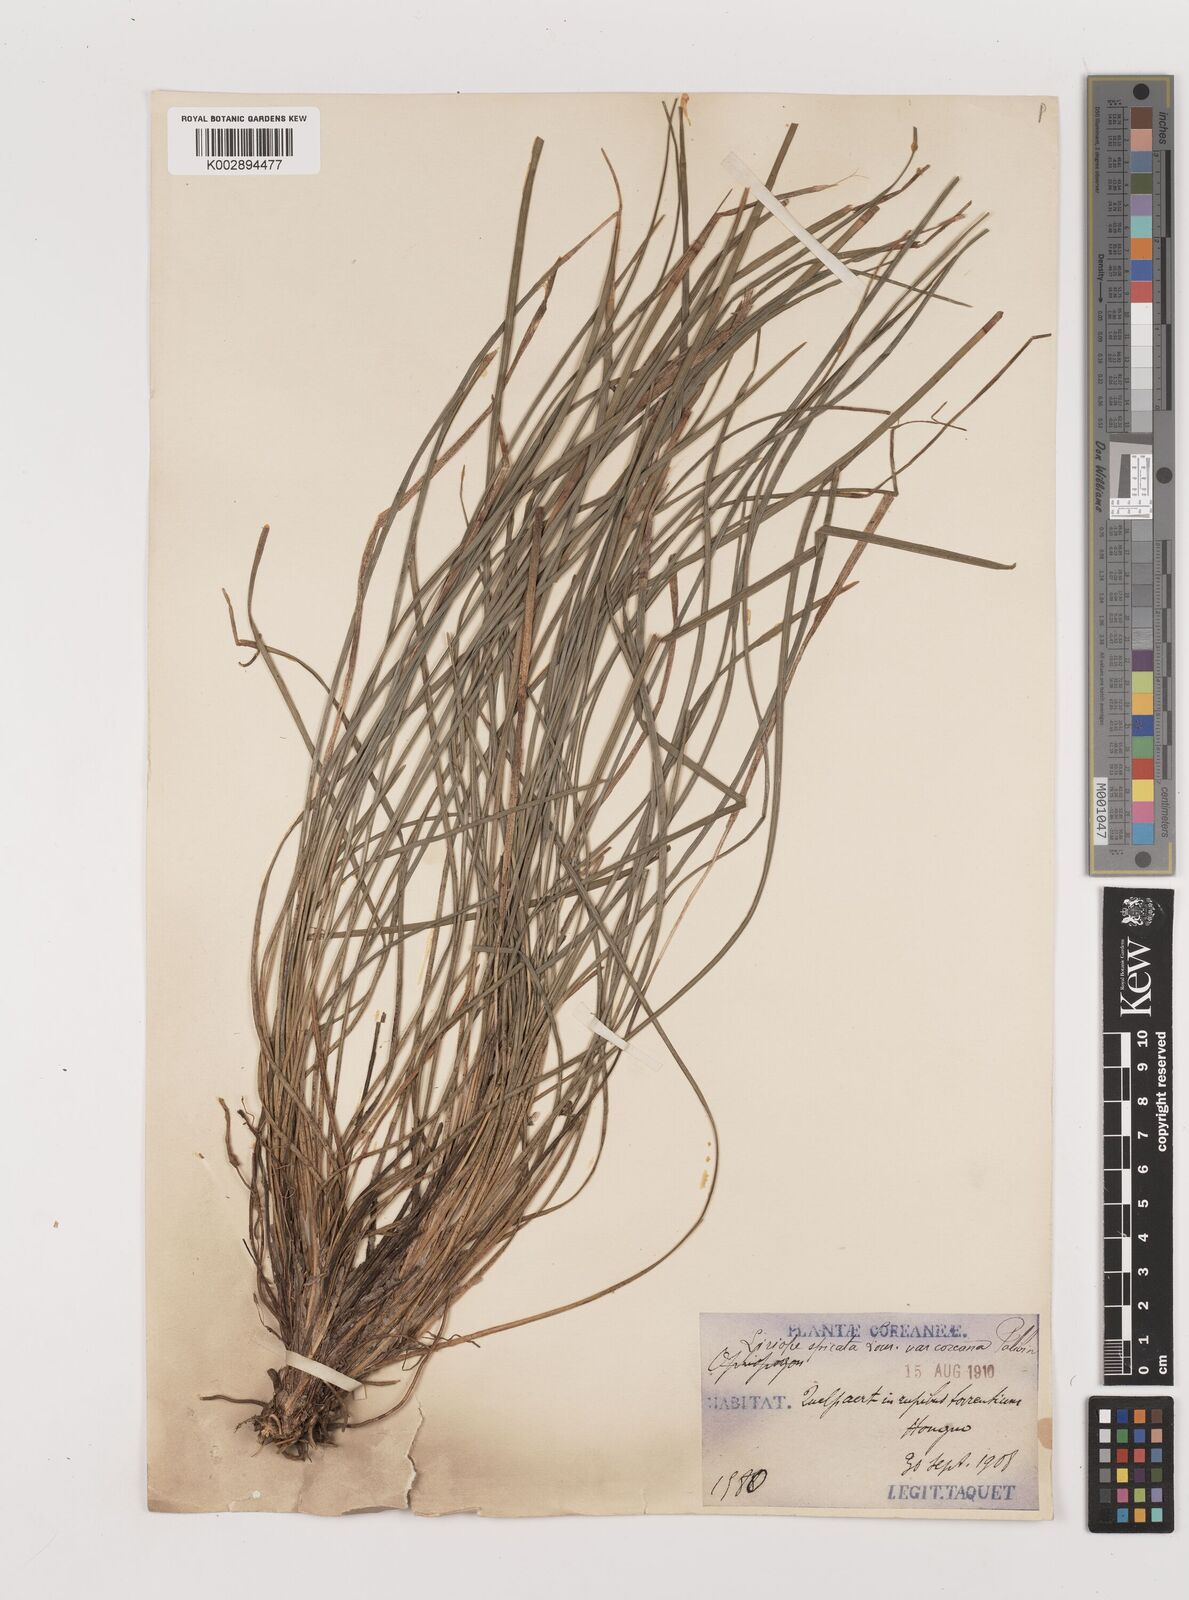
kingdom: Plantae
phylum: Tracheophyta
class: Liliopsida
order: Asparagales
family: Asparagaceae
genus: Liriope
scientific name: Liriope spicata
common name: Creeping liriope
